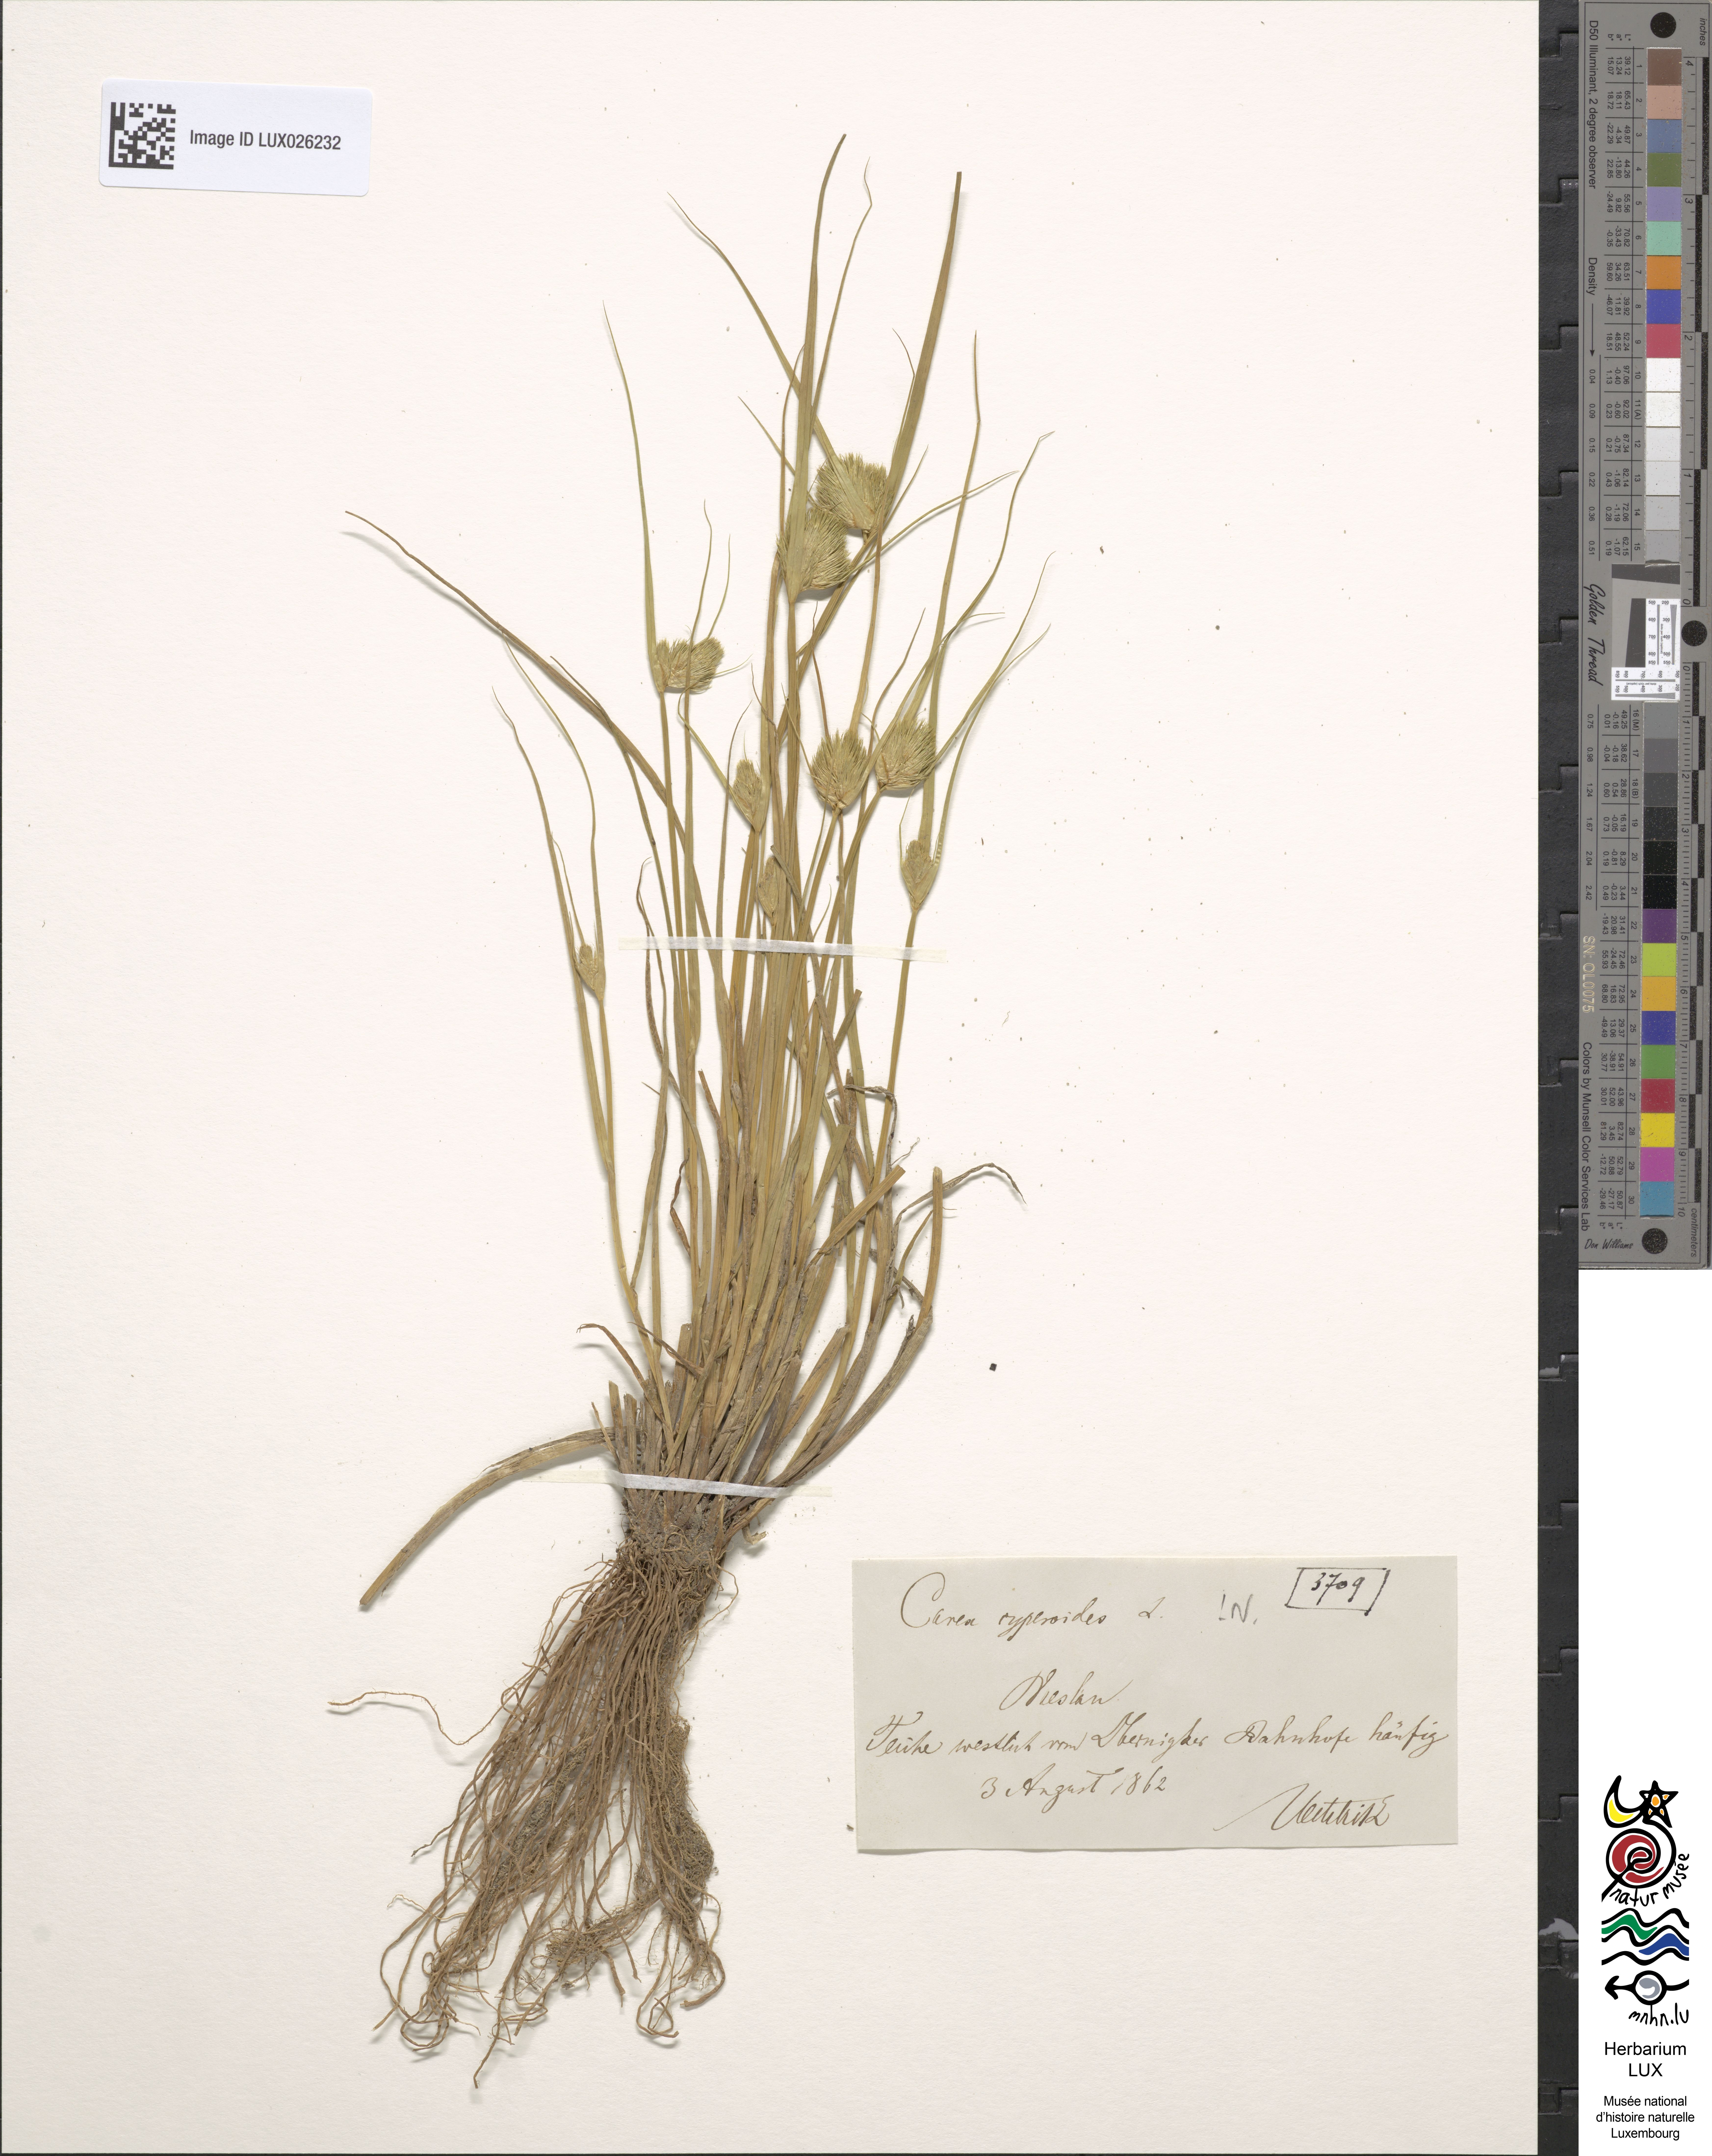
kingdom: Plantae
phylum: Tracheophyta
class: Liliopsida
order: Poales
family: Cyperaceae
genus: Carex
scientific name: Carex bohemica
